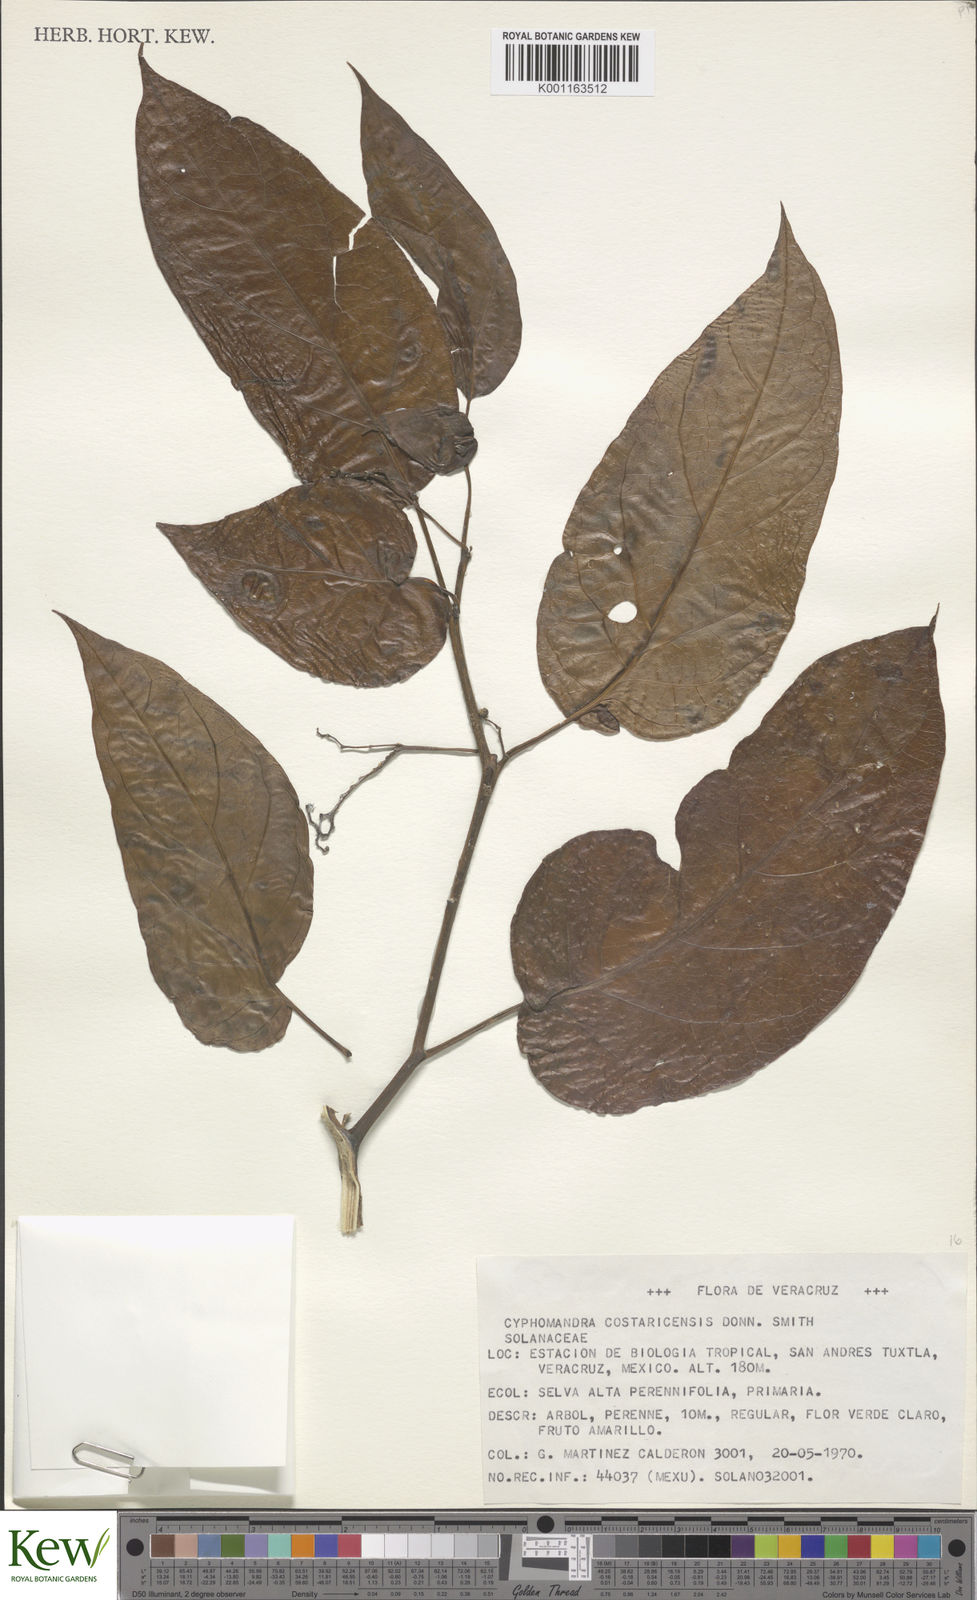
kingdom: Plantae
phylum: Tracheophyta
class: Magnoliopsida
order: Solanales
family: Solanaceae
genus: Solanum
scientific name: Solanum splendens
